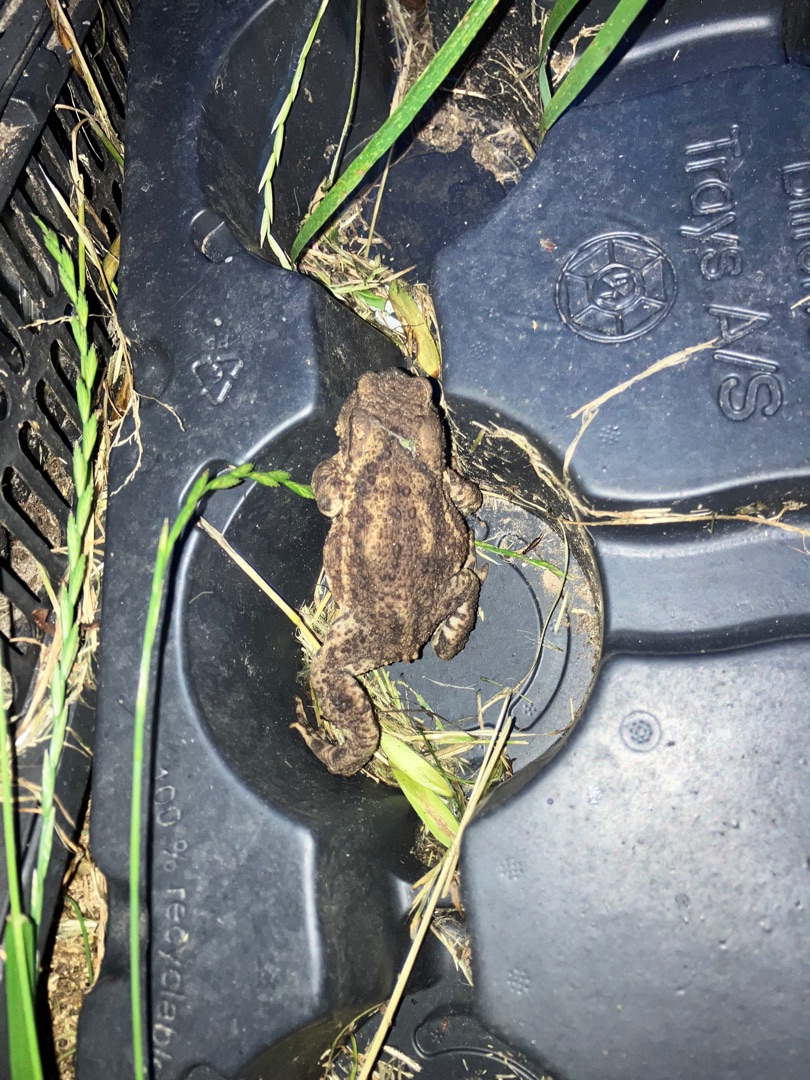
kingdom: Animalia
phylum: Chordata
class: Amphibia
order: Anura
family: Bufonidae
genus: Bufo
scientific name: Bufo bufo
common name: Skrubtudse
